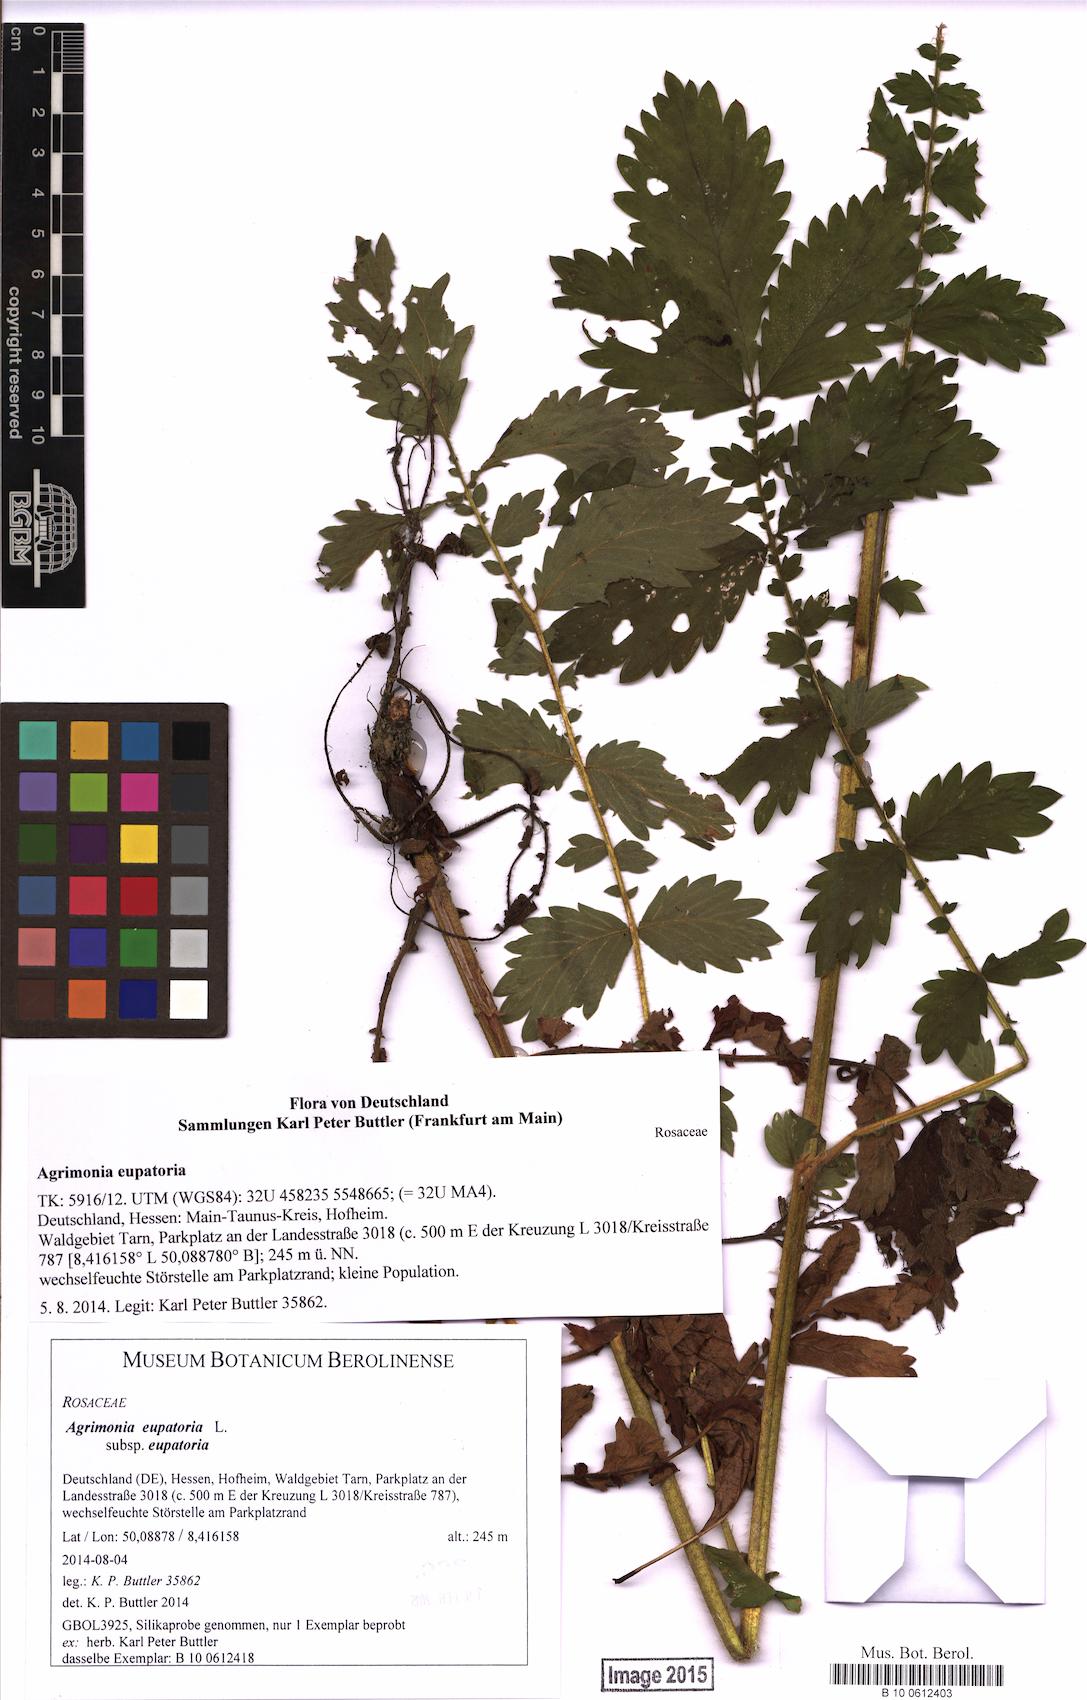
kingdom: Plantae
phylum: Tracheophyta
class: Magnoliopsida
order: Rosales
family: Rosaceae
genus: Agrimonia
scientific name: Agrimonia eupatoria
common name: Agrimony
